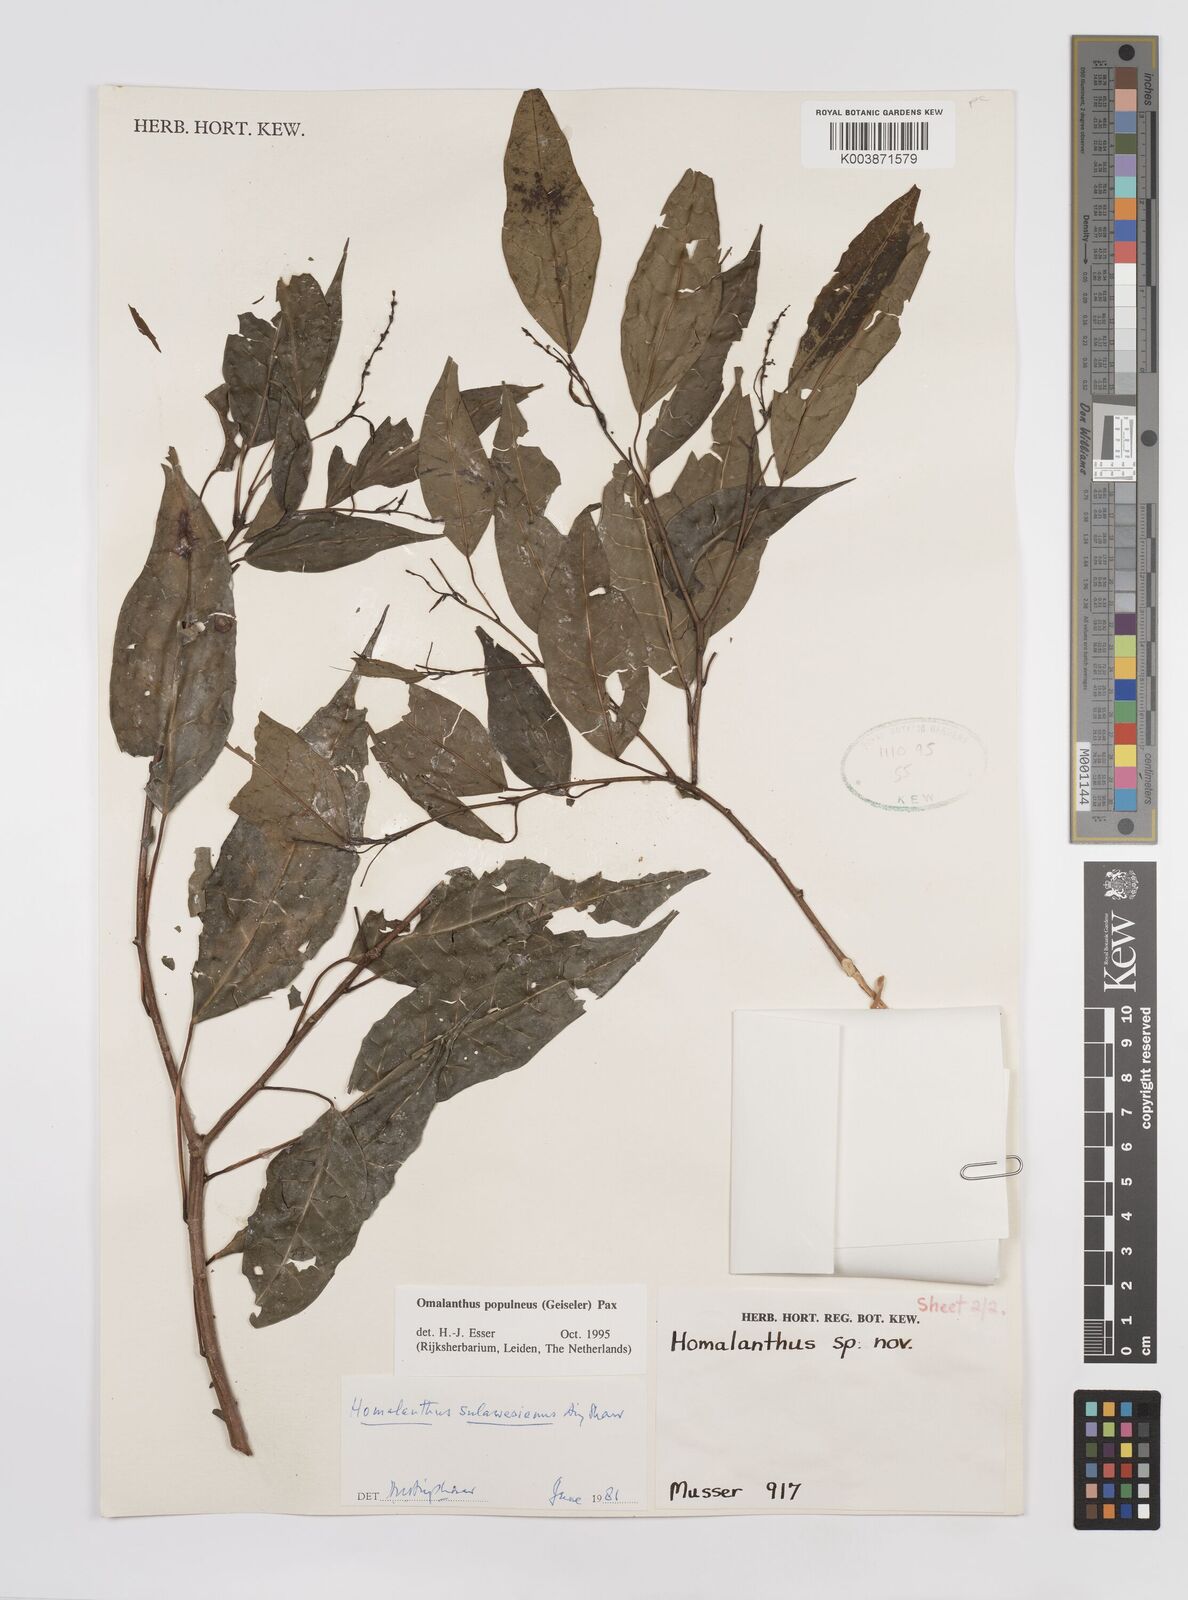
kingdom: Plantae
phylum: Tracheophyta
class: Magnoliopsida
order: Malpighiales
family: Euphorbiaceae
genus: Homalanthus
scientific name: Homalanthus populneus
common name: Spurge
